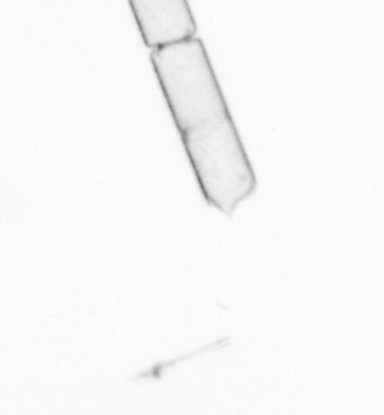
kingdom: Chromista
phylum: Ochrophyta
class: Bacillariophyceae
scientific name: Bacillariophyceae
